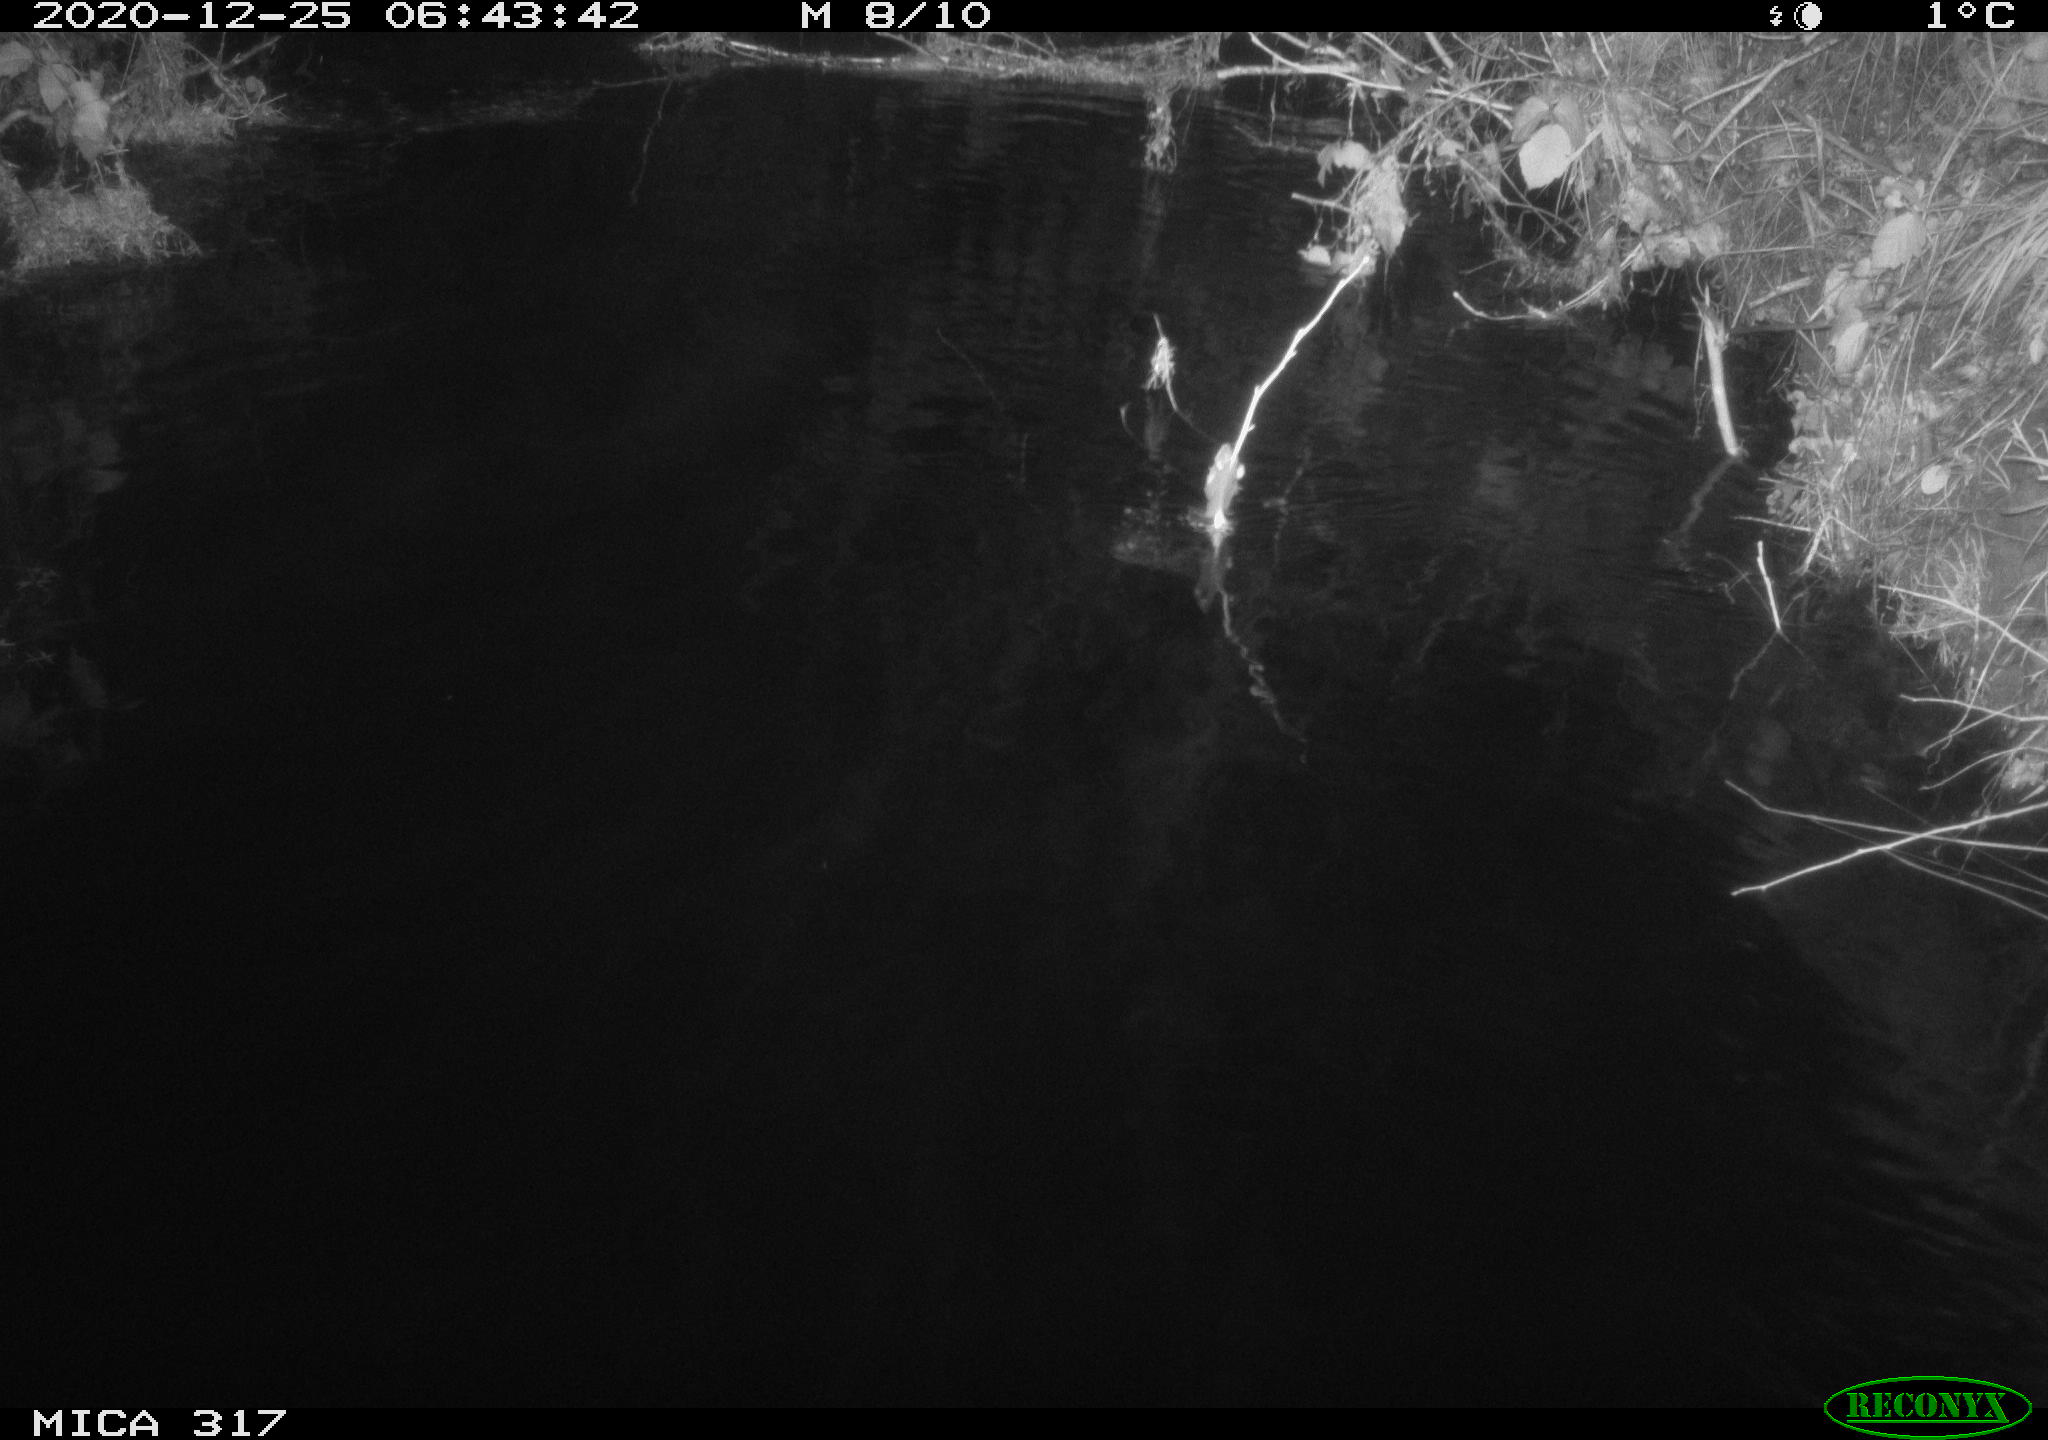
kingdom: Animalia
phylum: Chordata
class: Mammalia
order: Rodentia
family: Muridae
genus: Rattus
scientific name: Rattus norvegicus
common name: Brown rat
